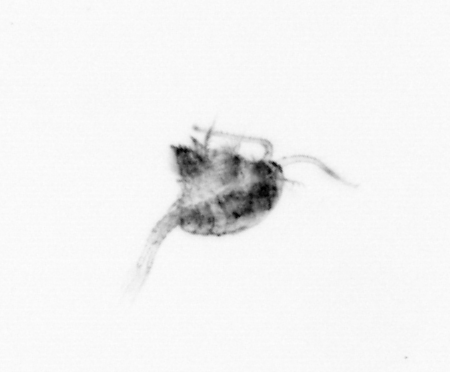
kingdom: Animalia
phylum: Arthropoda
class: Copepoda
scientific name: Copepoda
